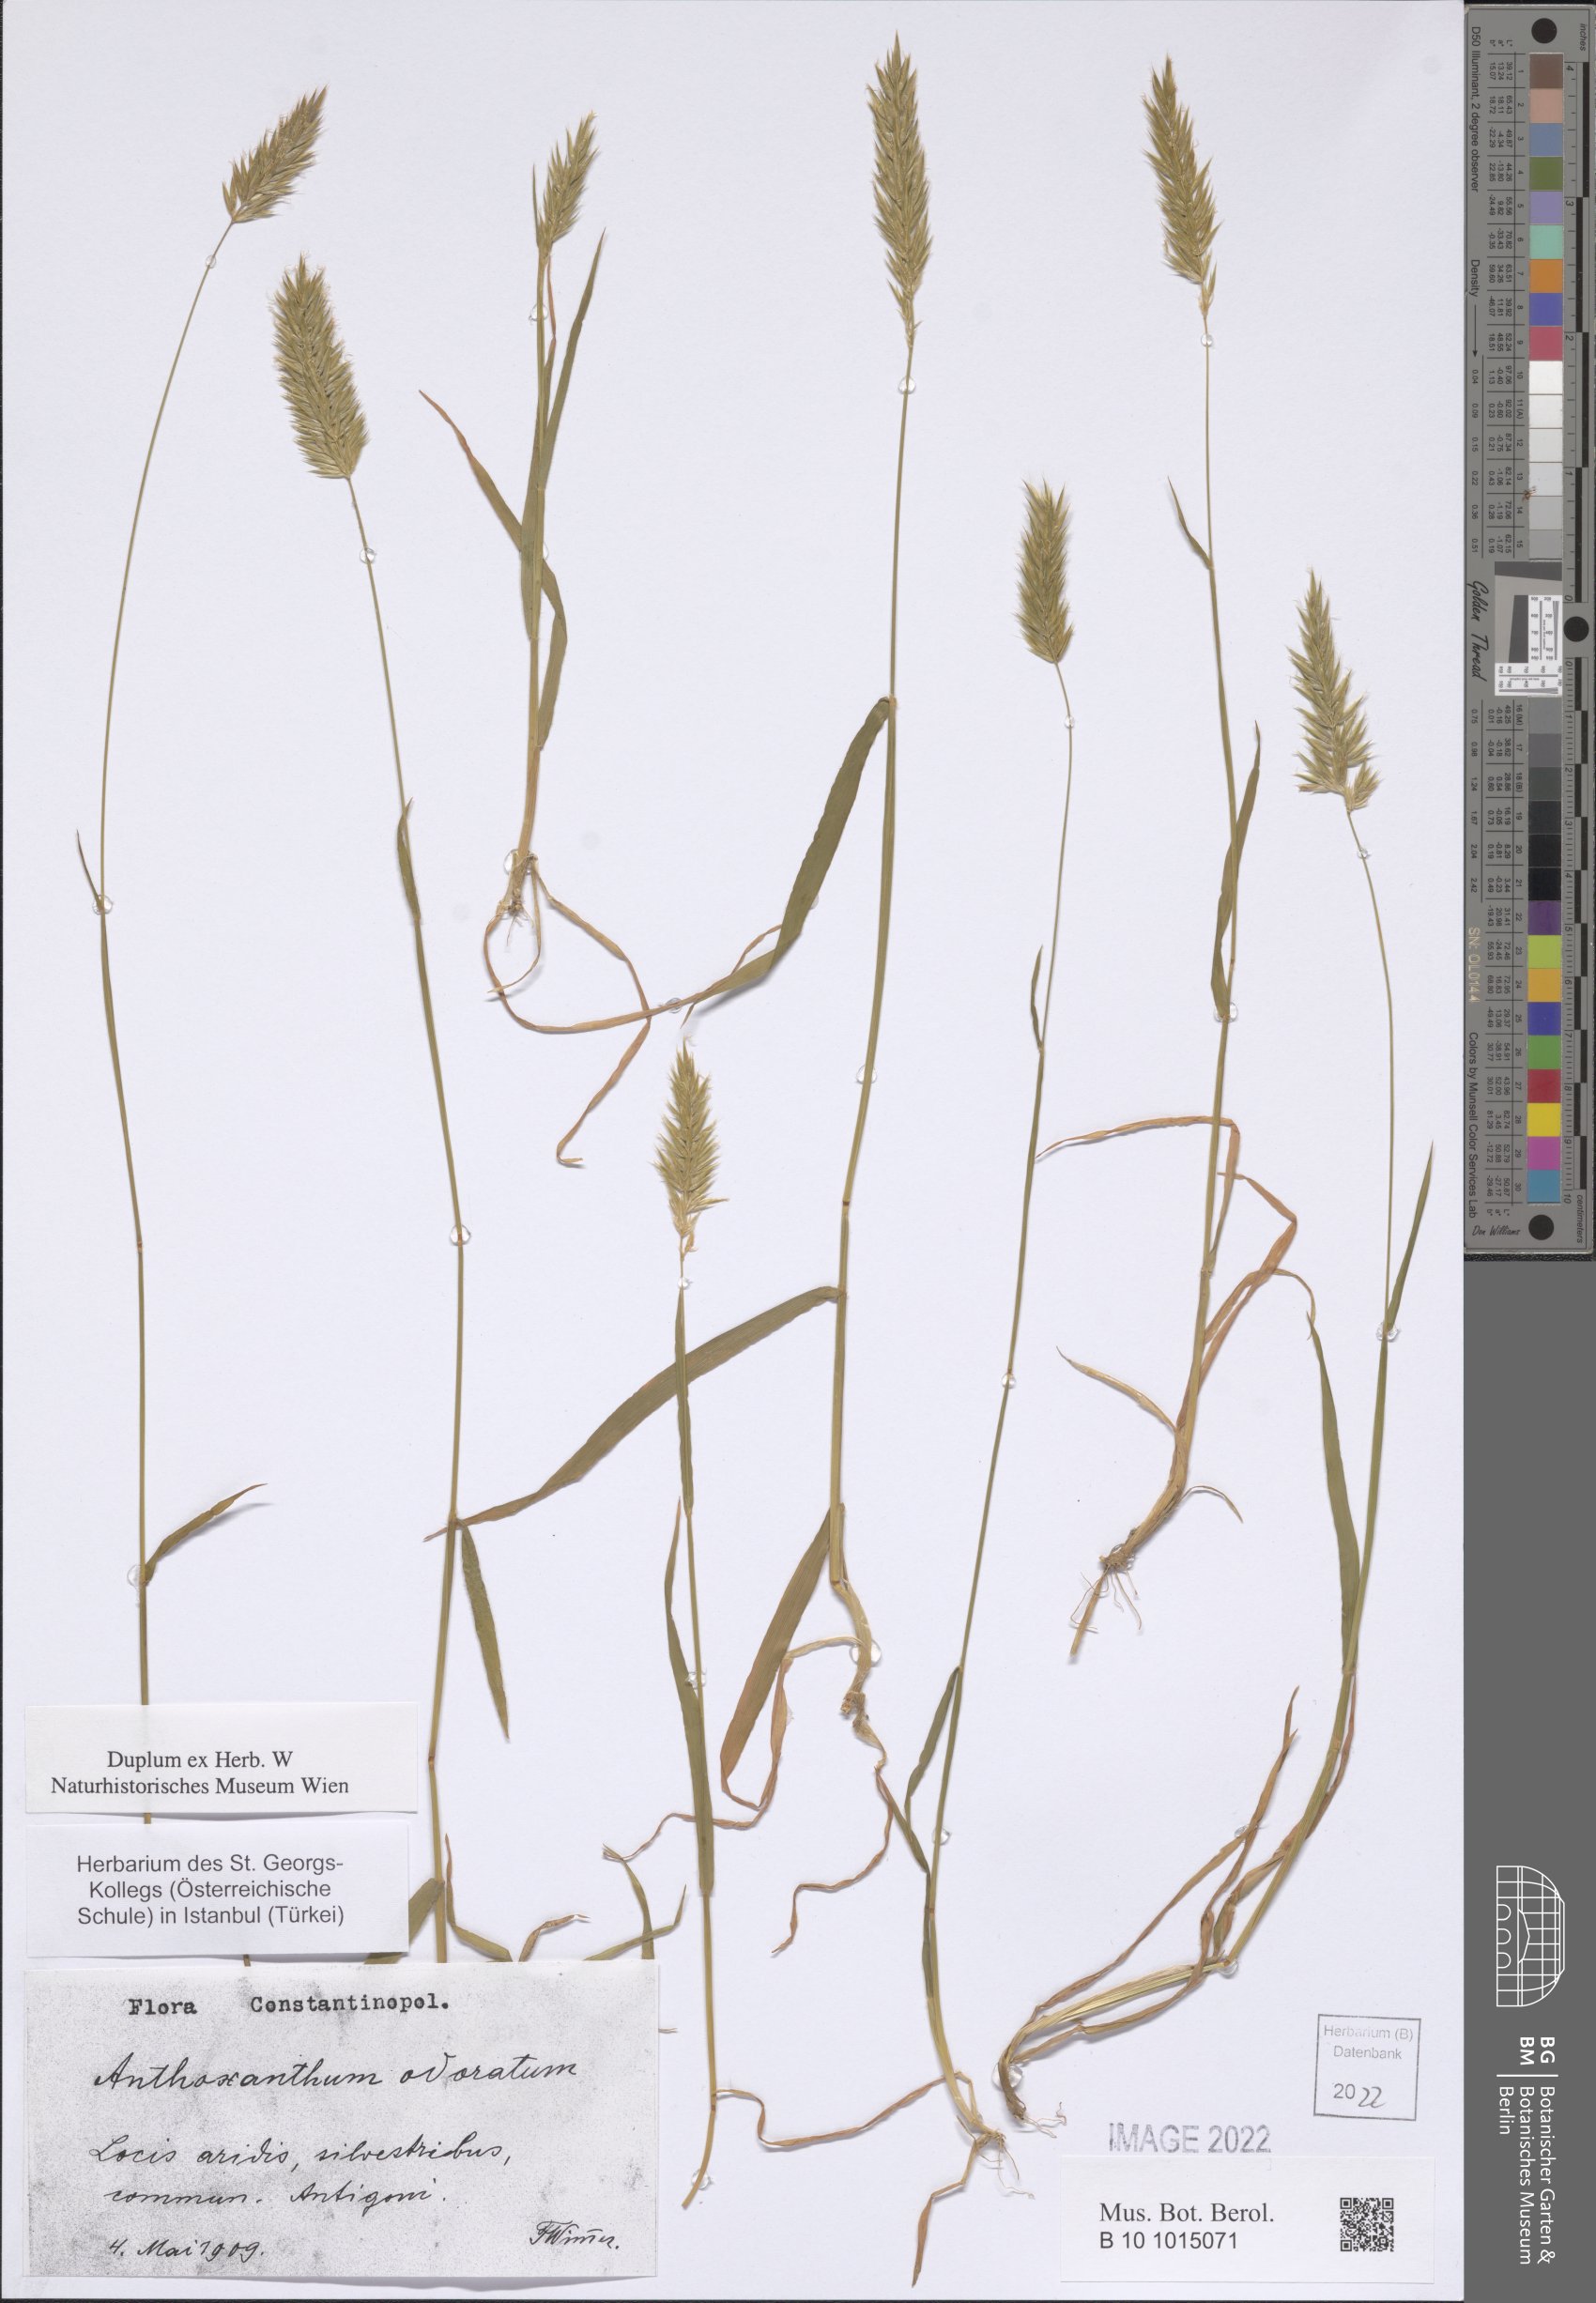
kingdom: Plantae
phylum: Tracheophyta
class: Liliopsida
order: Poales
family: Poaceae
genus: Anthoxanthum
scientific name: Anthoxanthum odoratum
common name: Sweet vernalgrass
